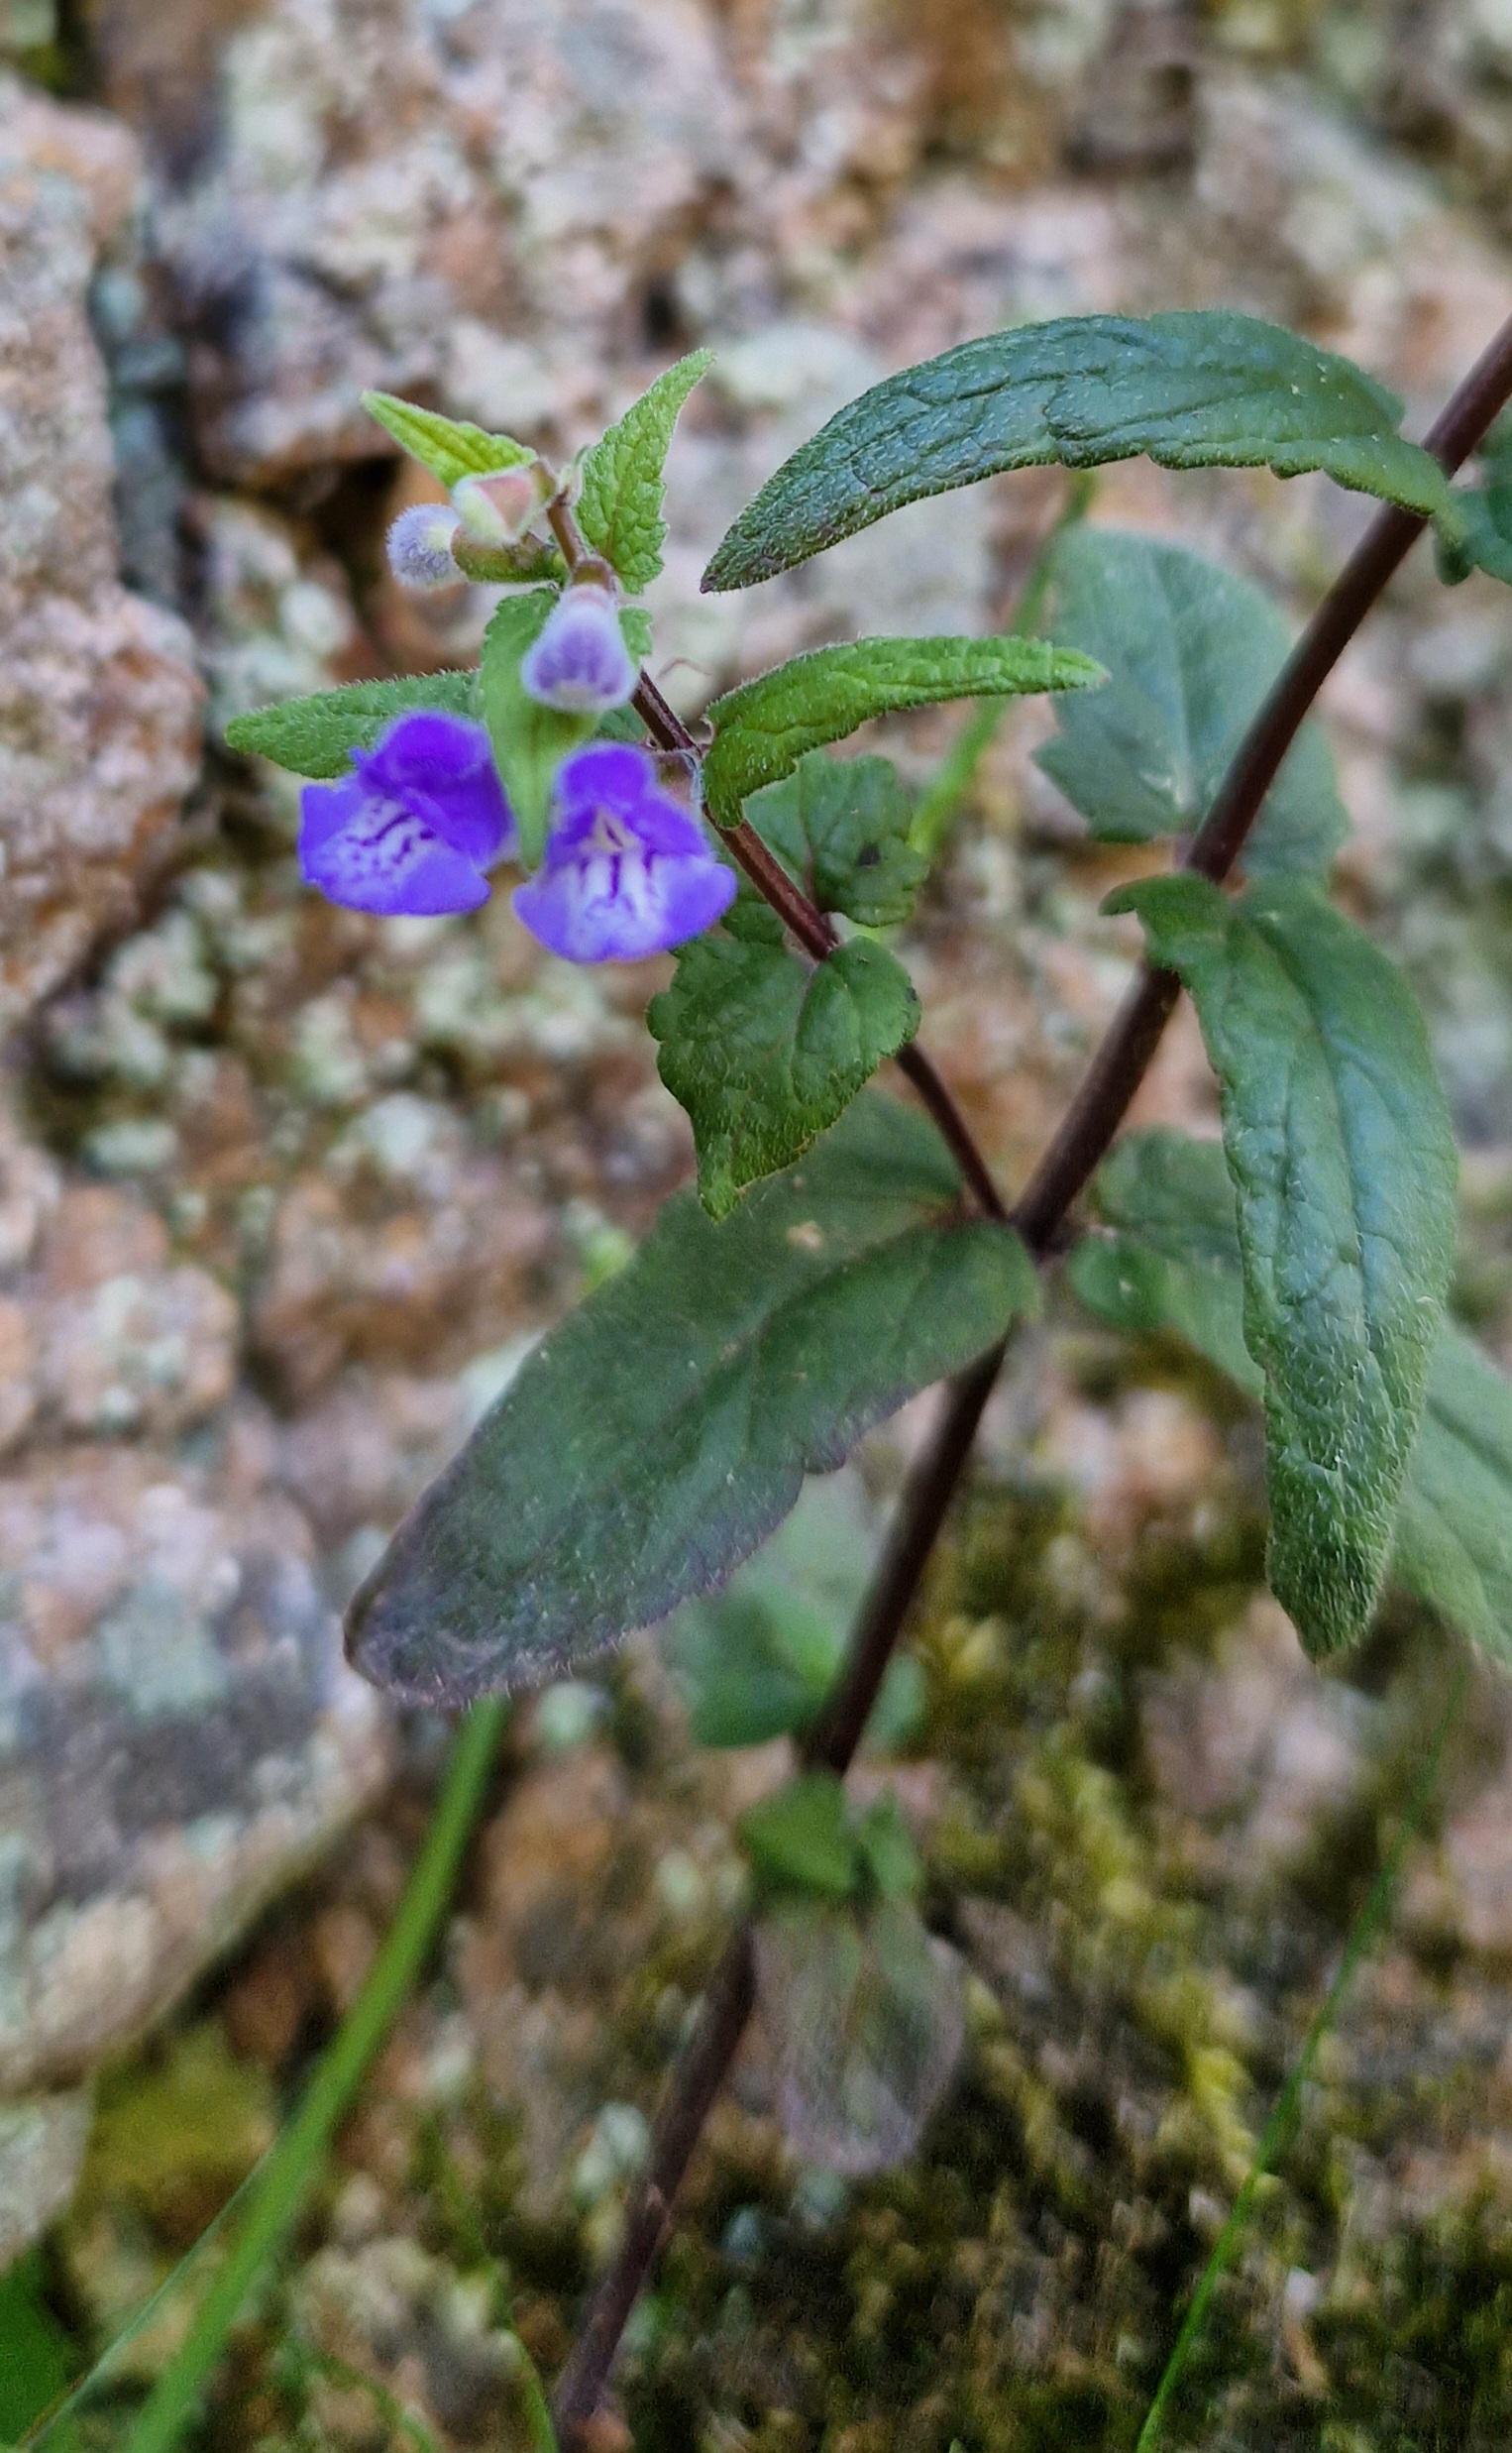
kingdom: Plantae
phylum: Tracheophyta
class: Magnoliopsida
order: Lamiales
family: Lamiaceae
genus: Scutellaria
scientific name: Scutellaria galericulata
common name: Almindelig skjolddrager
